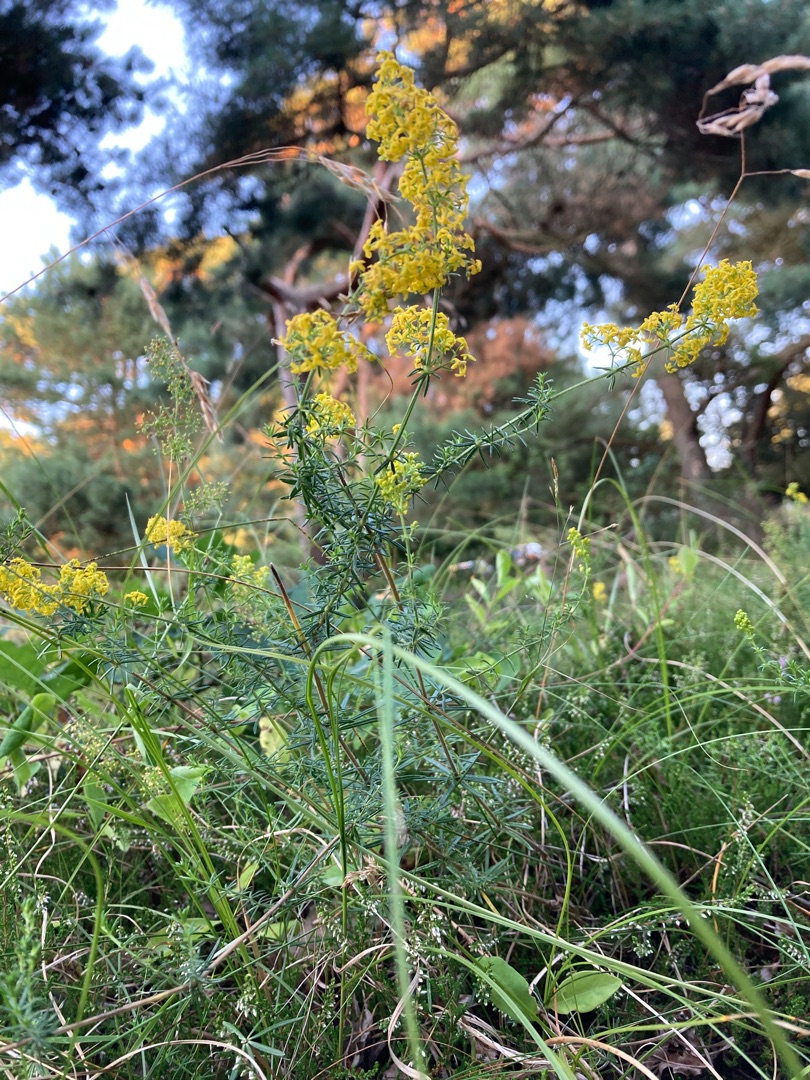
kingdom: Plantae
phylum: Tracheophyta
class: Magnoliopsida
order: Gentianales
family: Rubiaceae
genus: Galium
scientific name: Galium verum
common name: Gul snerre
